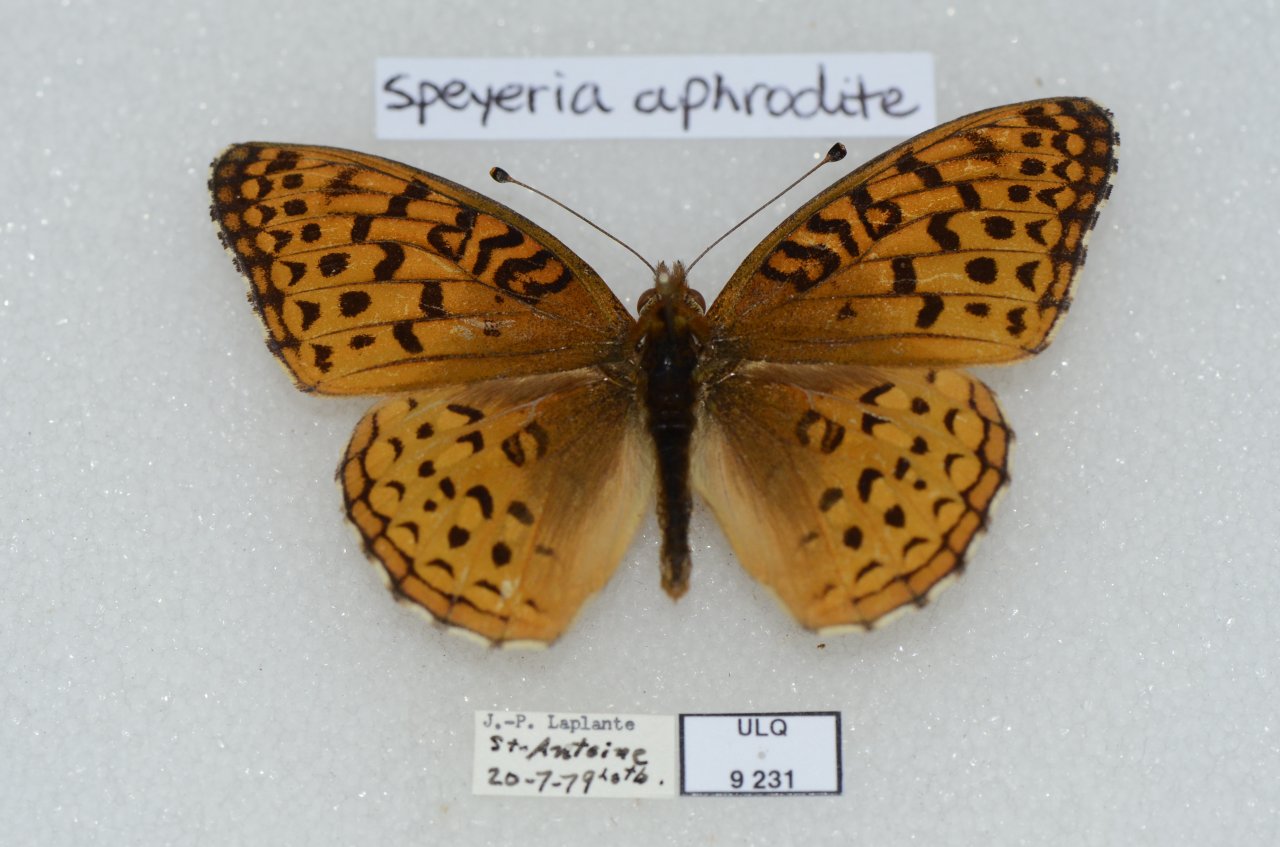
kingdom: Animalia
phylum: Arthropoda
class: Insecta
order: Lepidoptera
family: Nymphalidae
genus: Speyeria
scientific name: Speyeria aphrodite
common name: Aphrodite Fritillary
